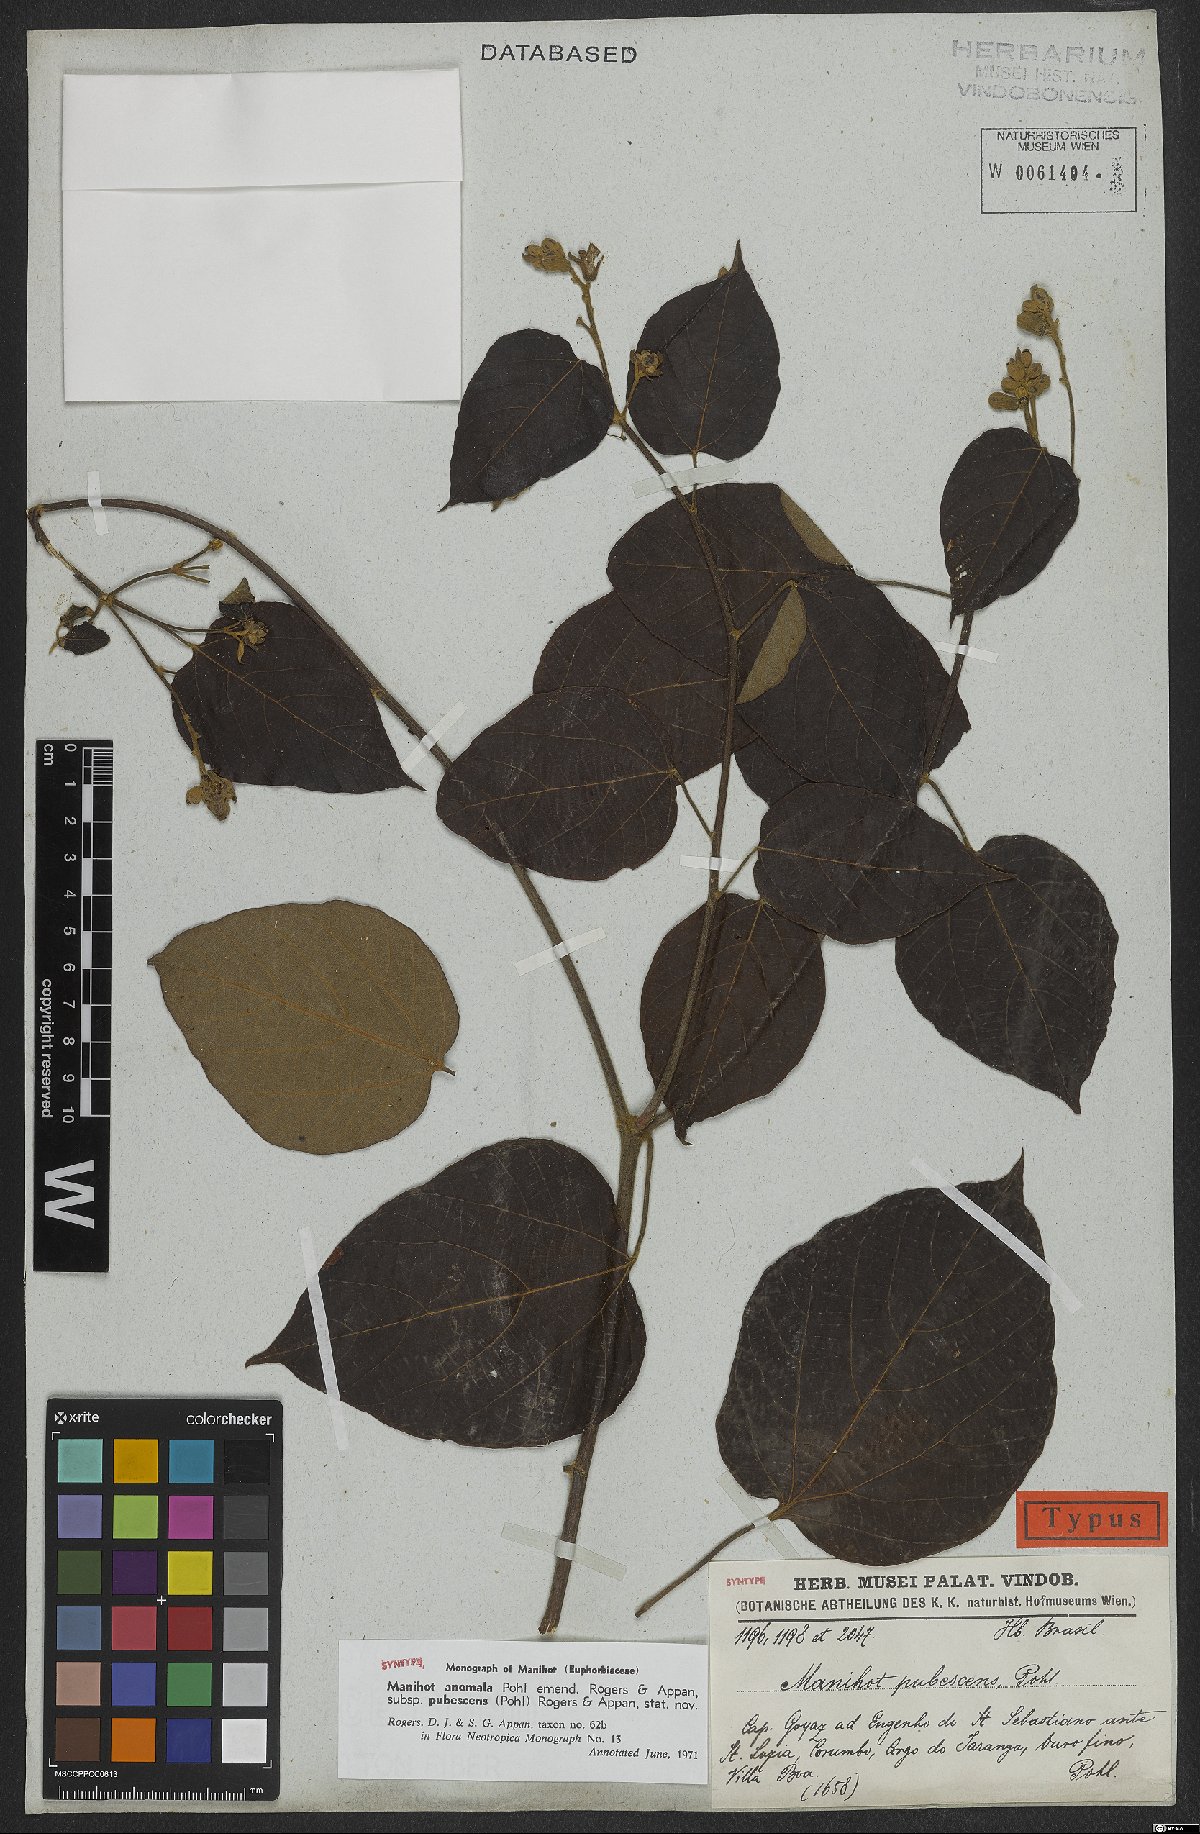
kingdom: Plantae
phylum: Tracheophyta
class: Magnoliopsida
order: Malpighiales
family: Euphorbiaceae
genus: Manihot
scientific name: Manihot anomala
